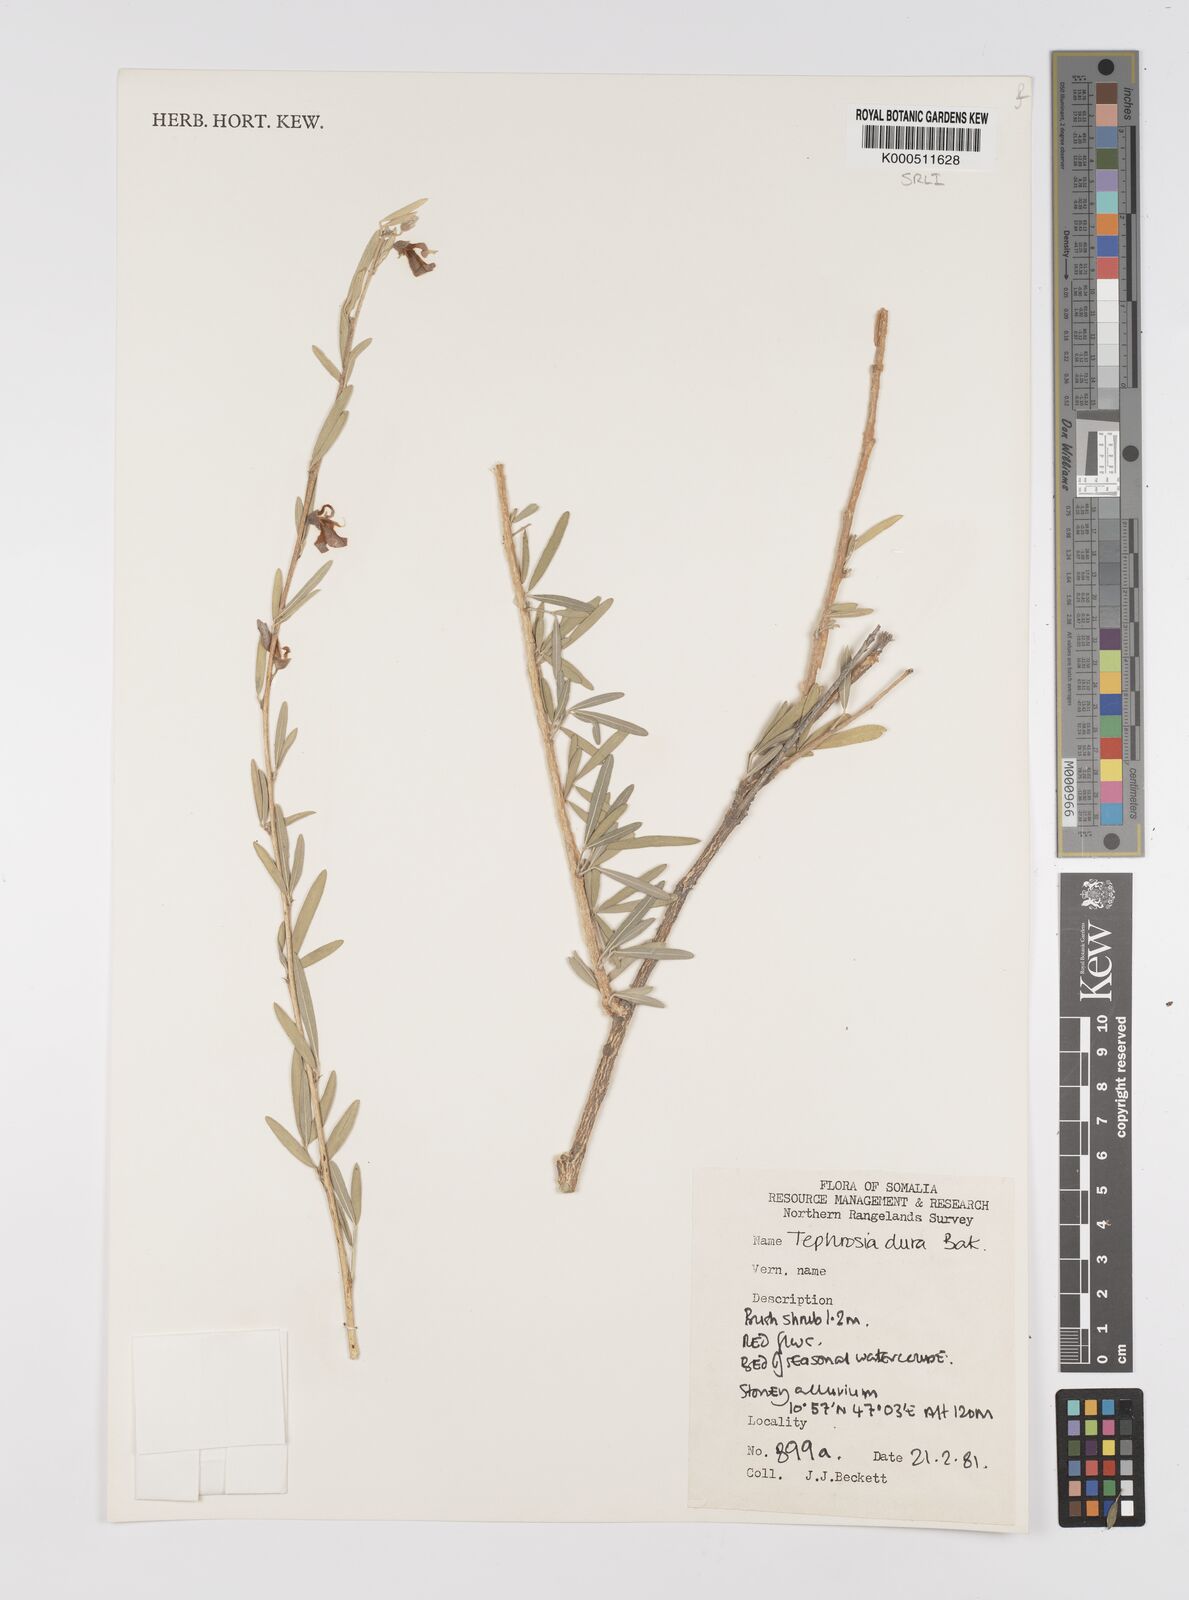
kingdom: Plantae
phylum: Tracheophyta
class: Magnoliopsida
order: Fabales
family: Fabaceae
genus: Tephrosia
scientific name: Tephrosia dura
